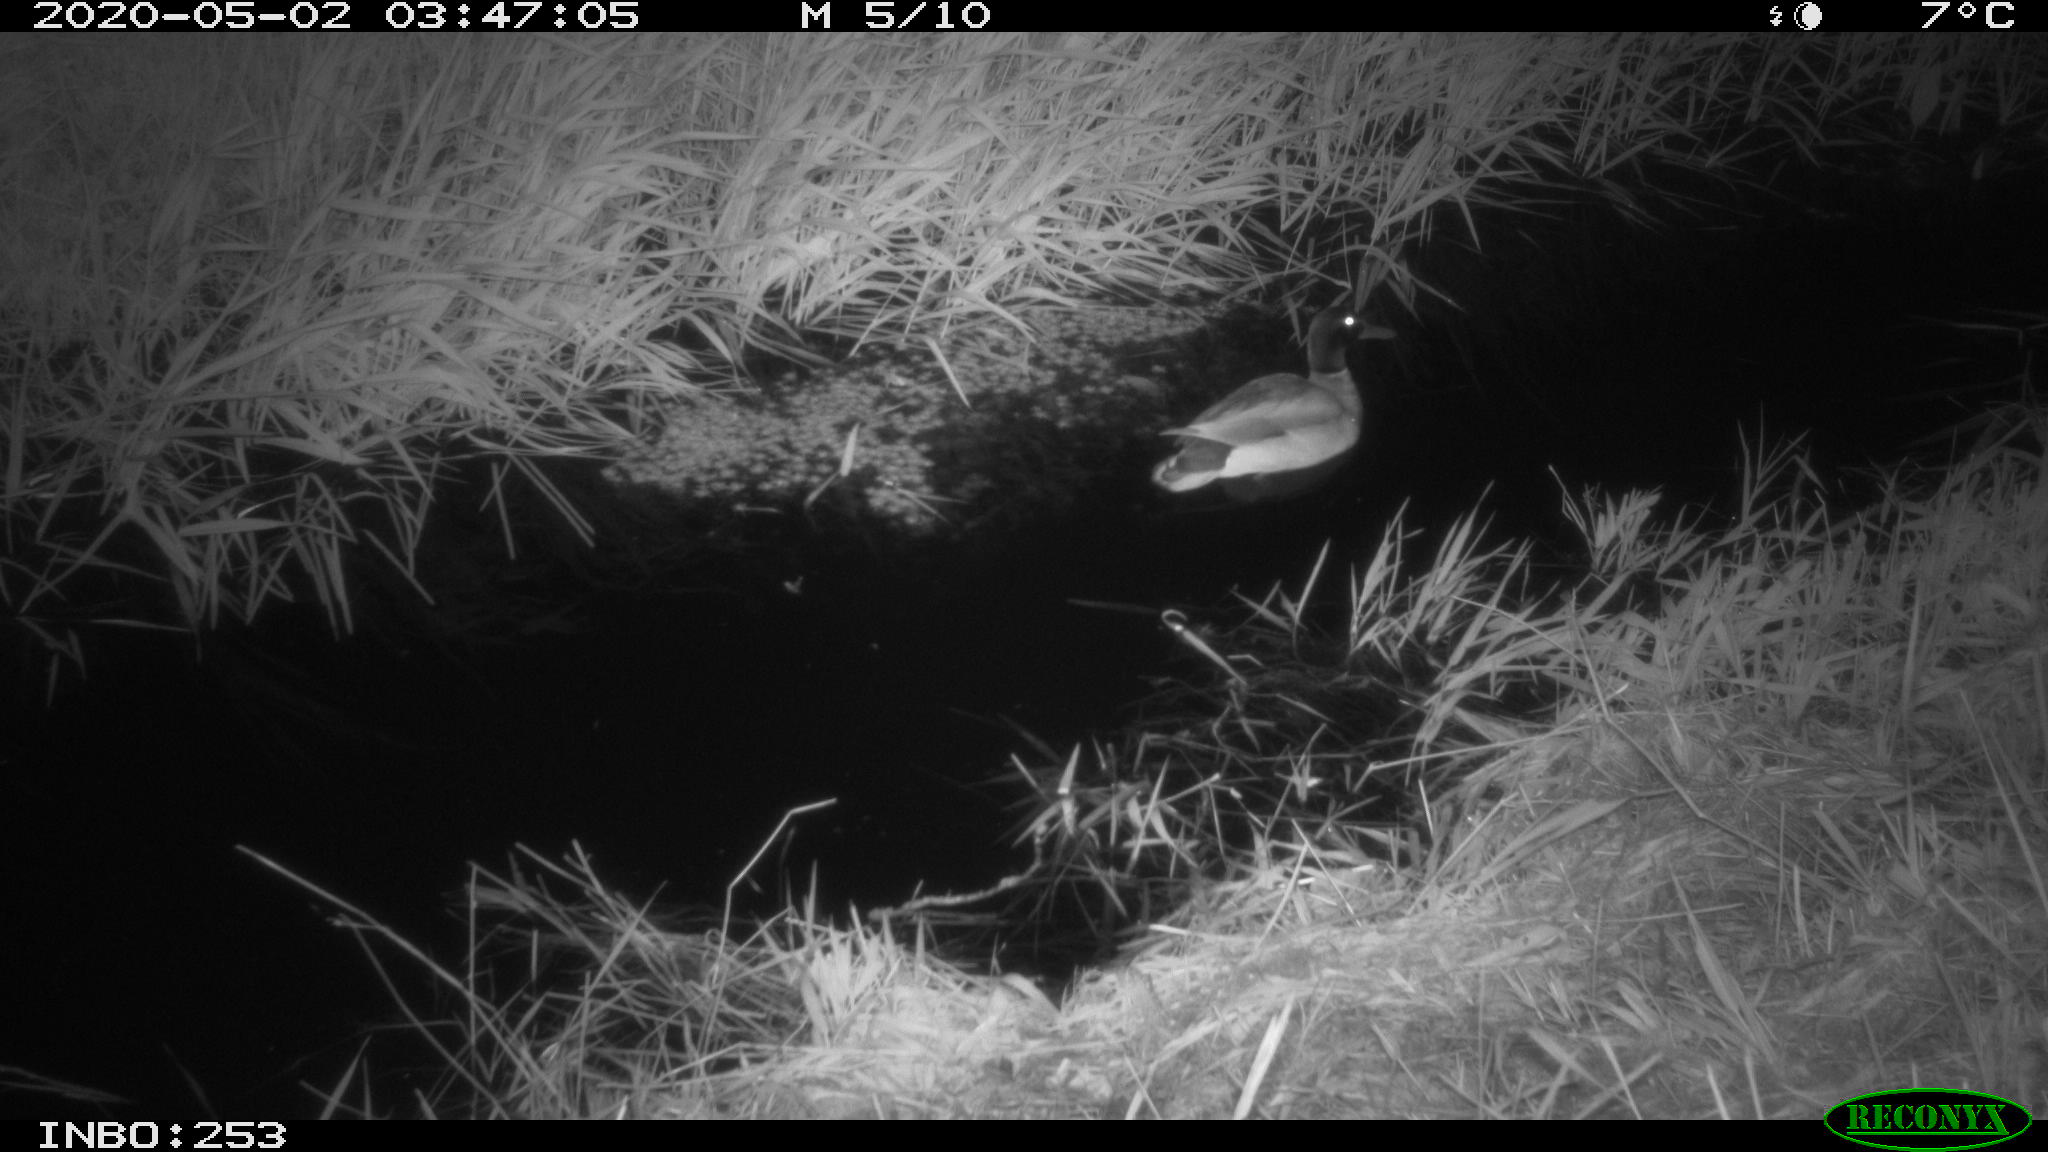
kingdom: Animalia
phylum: Chordata
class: Aves
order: Anseriformes
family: Anatidae
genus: Anas
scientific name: Anas platyrhynchos
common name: Mallard
